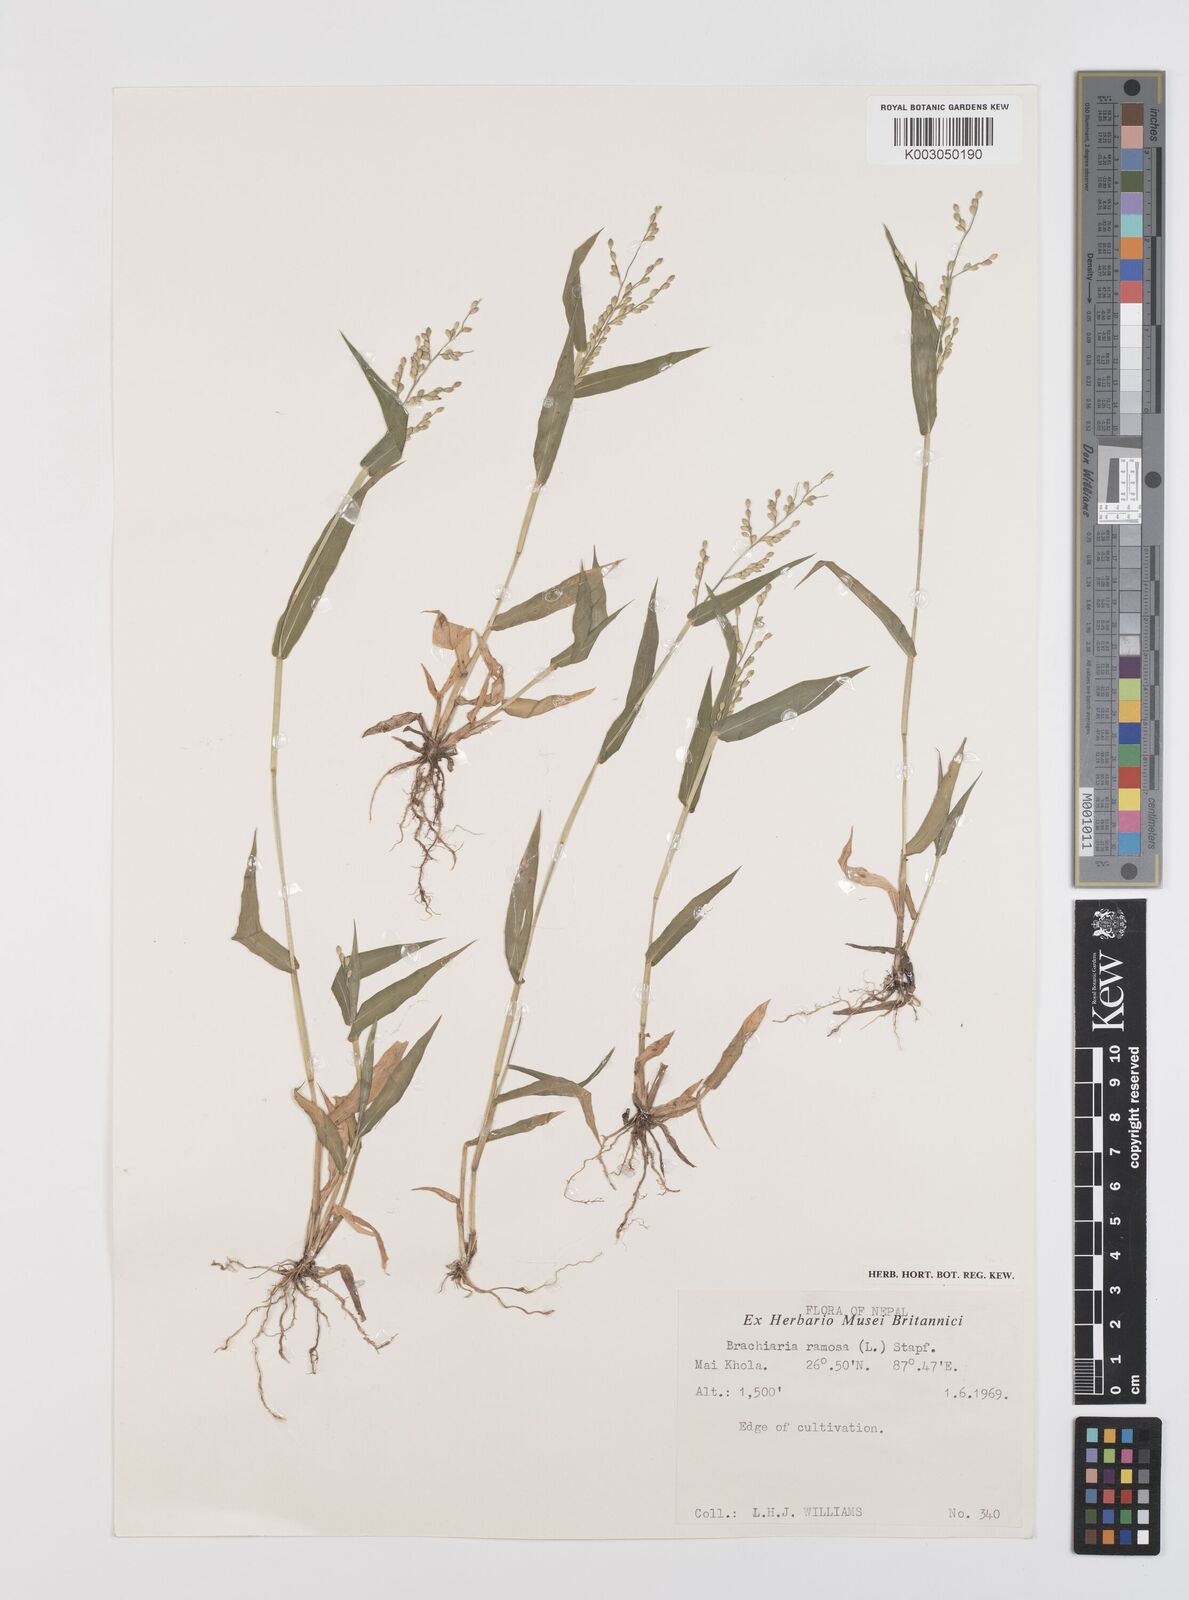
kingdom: Plantae
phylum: Tracheophyta
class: Liliopsida
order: Poales
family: Poaceae
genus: Urochloa
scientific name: Urochloa ramosa
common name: Browntop millet
